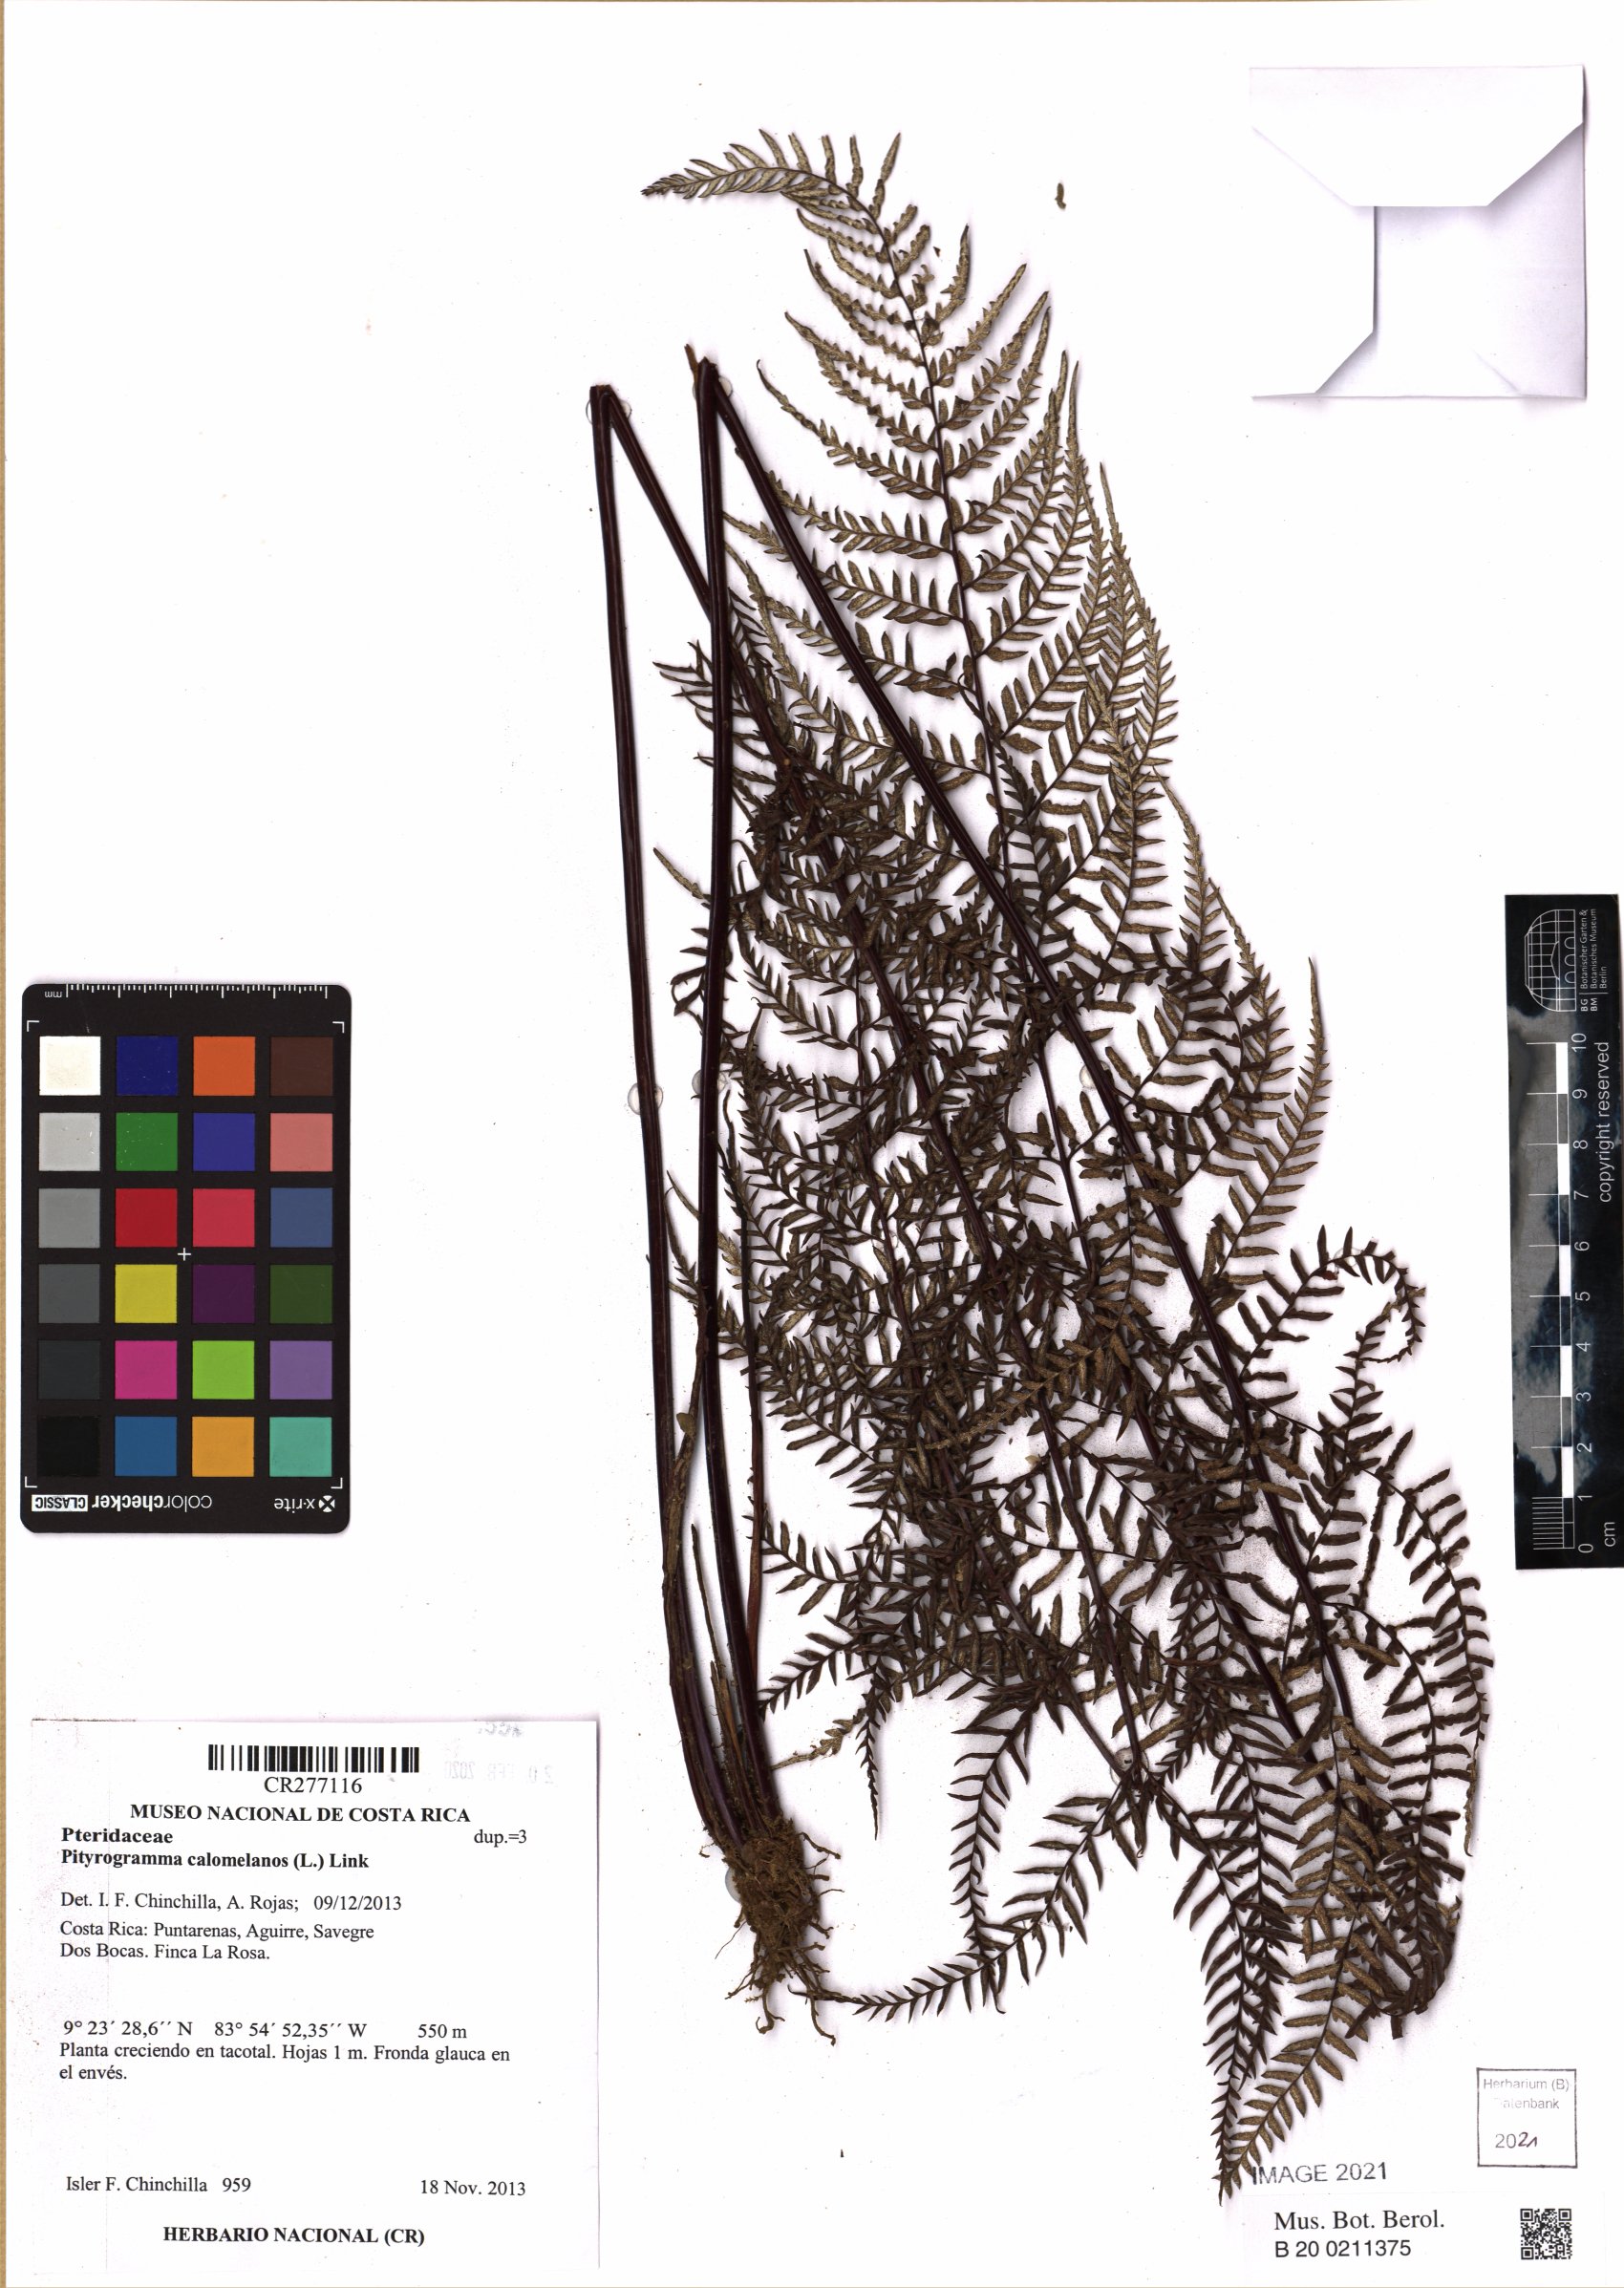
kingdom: Plantae
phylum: Tracheophyta
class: Polypodiopsida
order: Polypodiales
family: Pteridaceae
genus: Pityrogramma
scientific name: Pityrogramma calomelanos
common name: Dixie silverback fern
